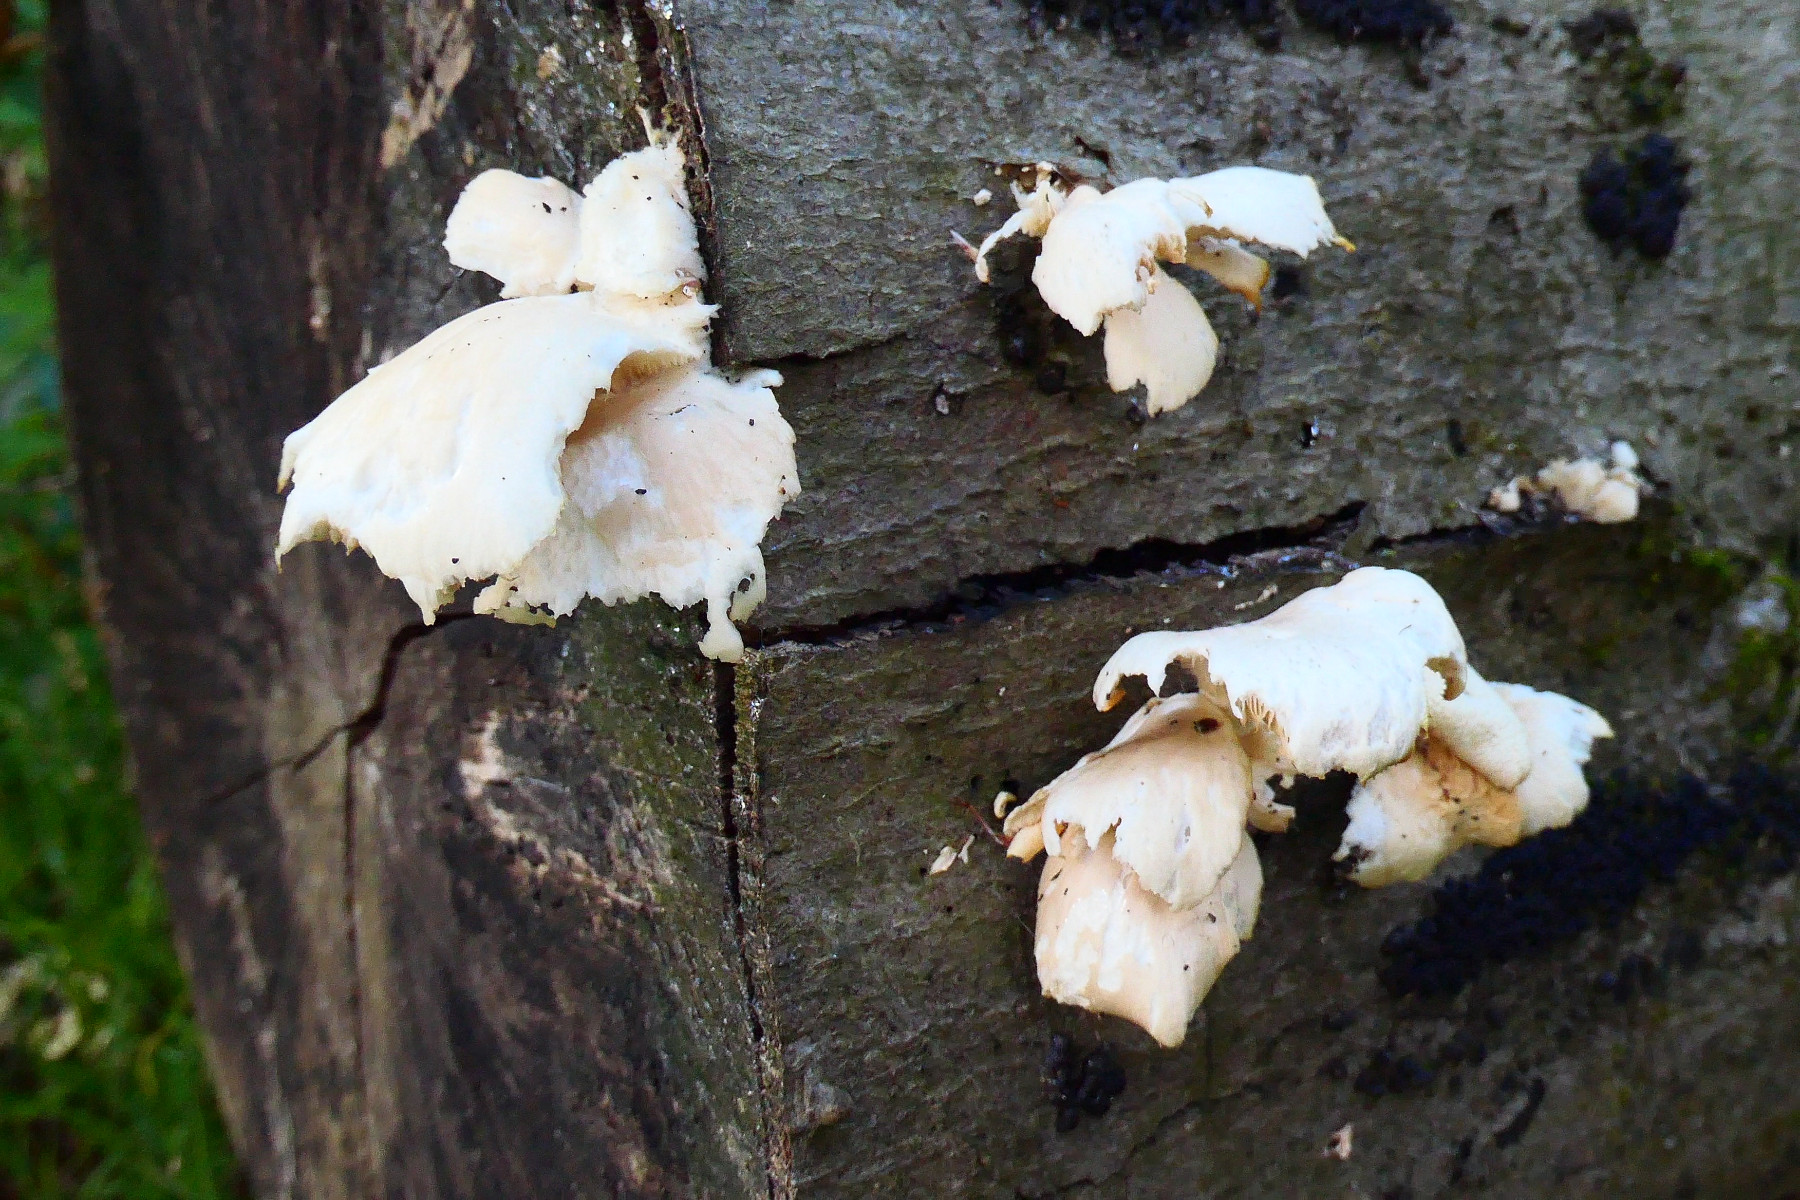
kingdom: Fungi
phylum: Basidiomycota
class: Agaricomycetes
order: Agaricales
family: Pleurotaceae
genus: Pleurotus
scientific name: Pleurotus pulmonarius
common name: sommer-østershat
